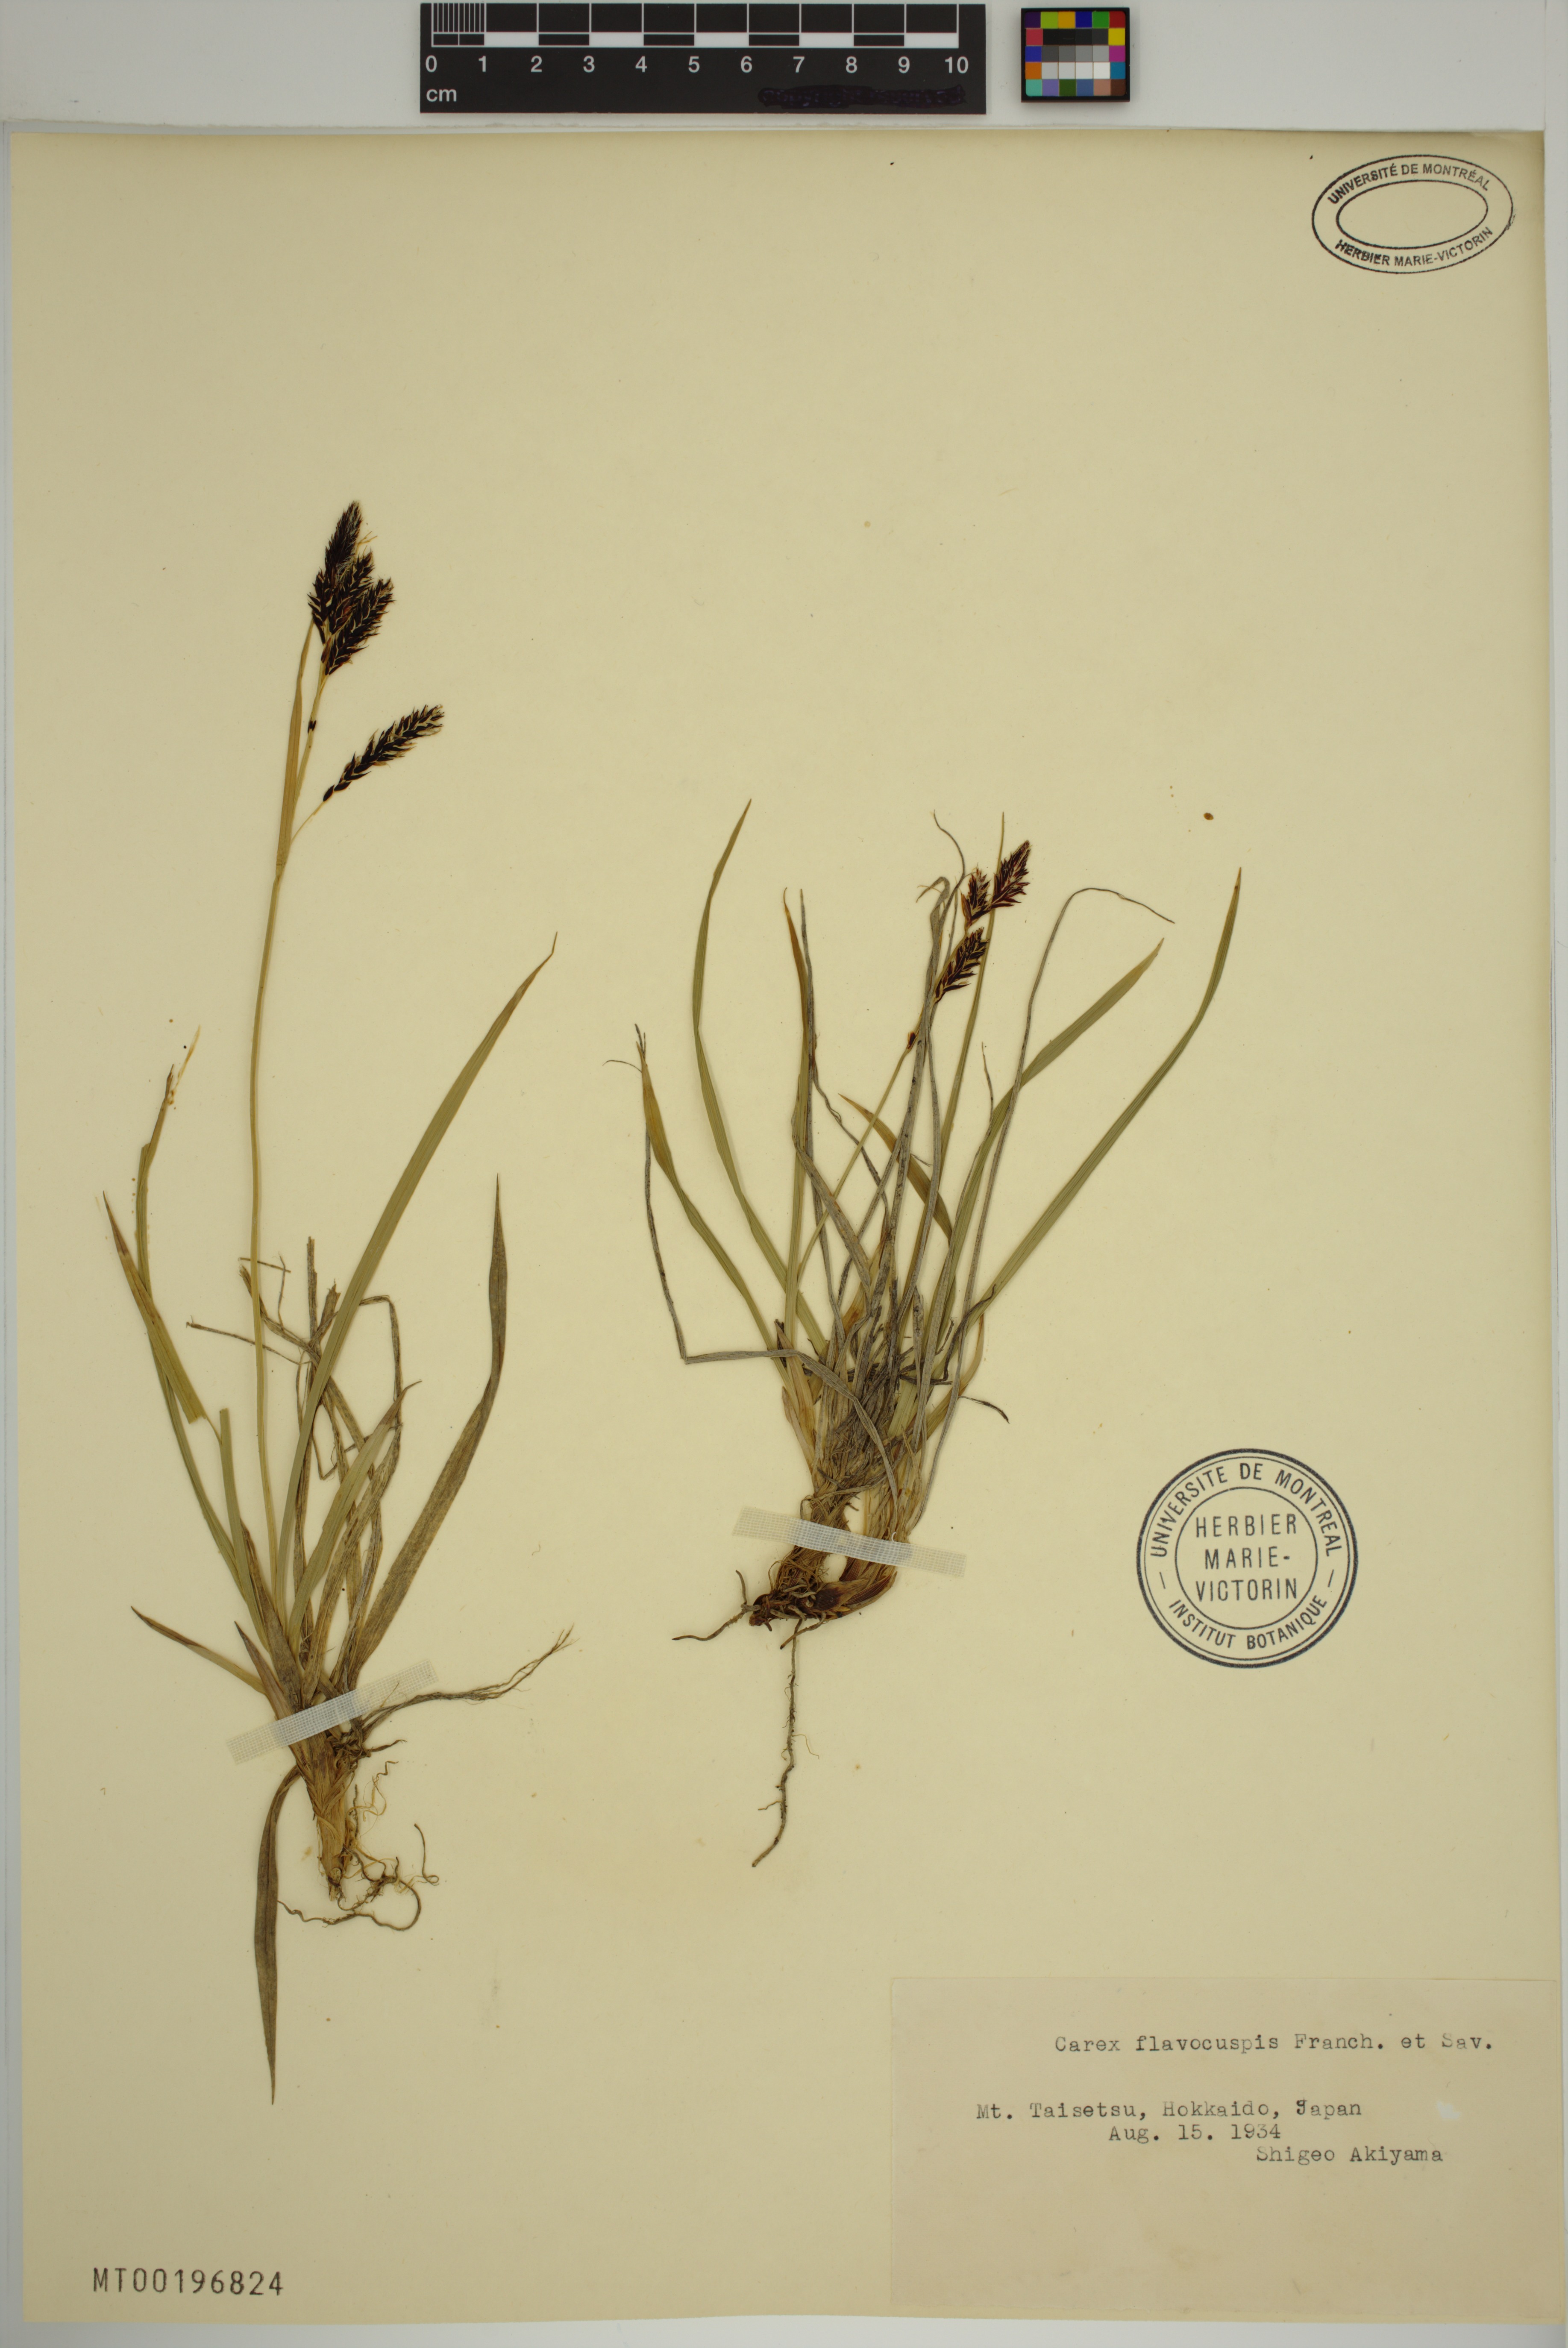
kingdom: Plantae
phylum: Tracheophyta
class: Liliopsida
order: Poales
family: Cyperaceae
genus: Carex
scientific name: Carex flavocuspis
